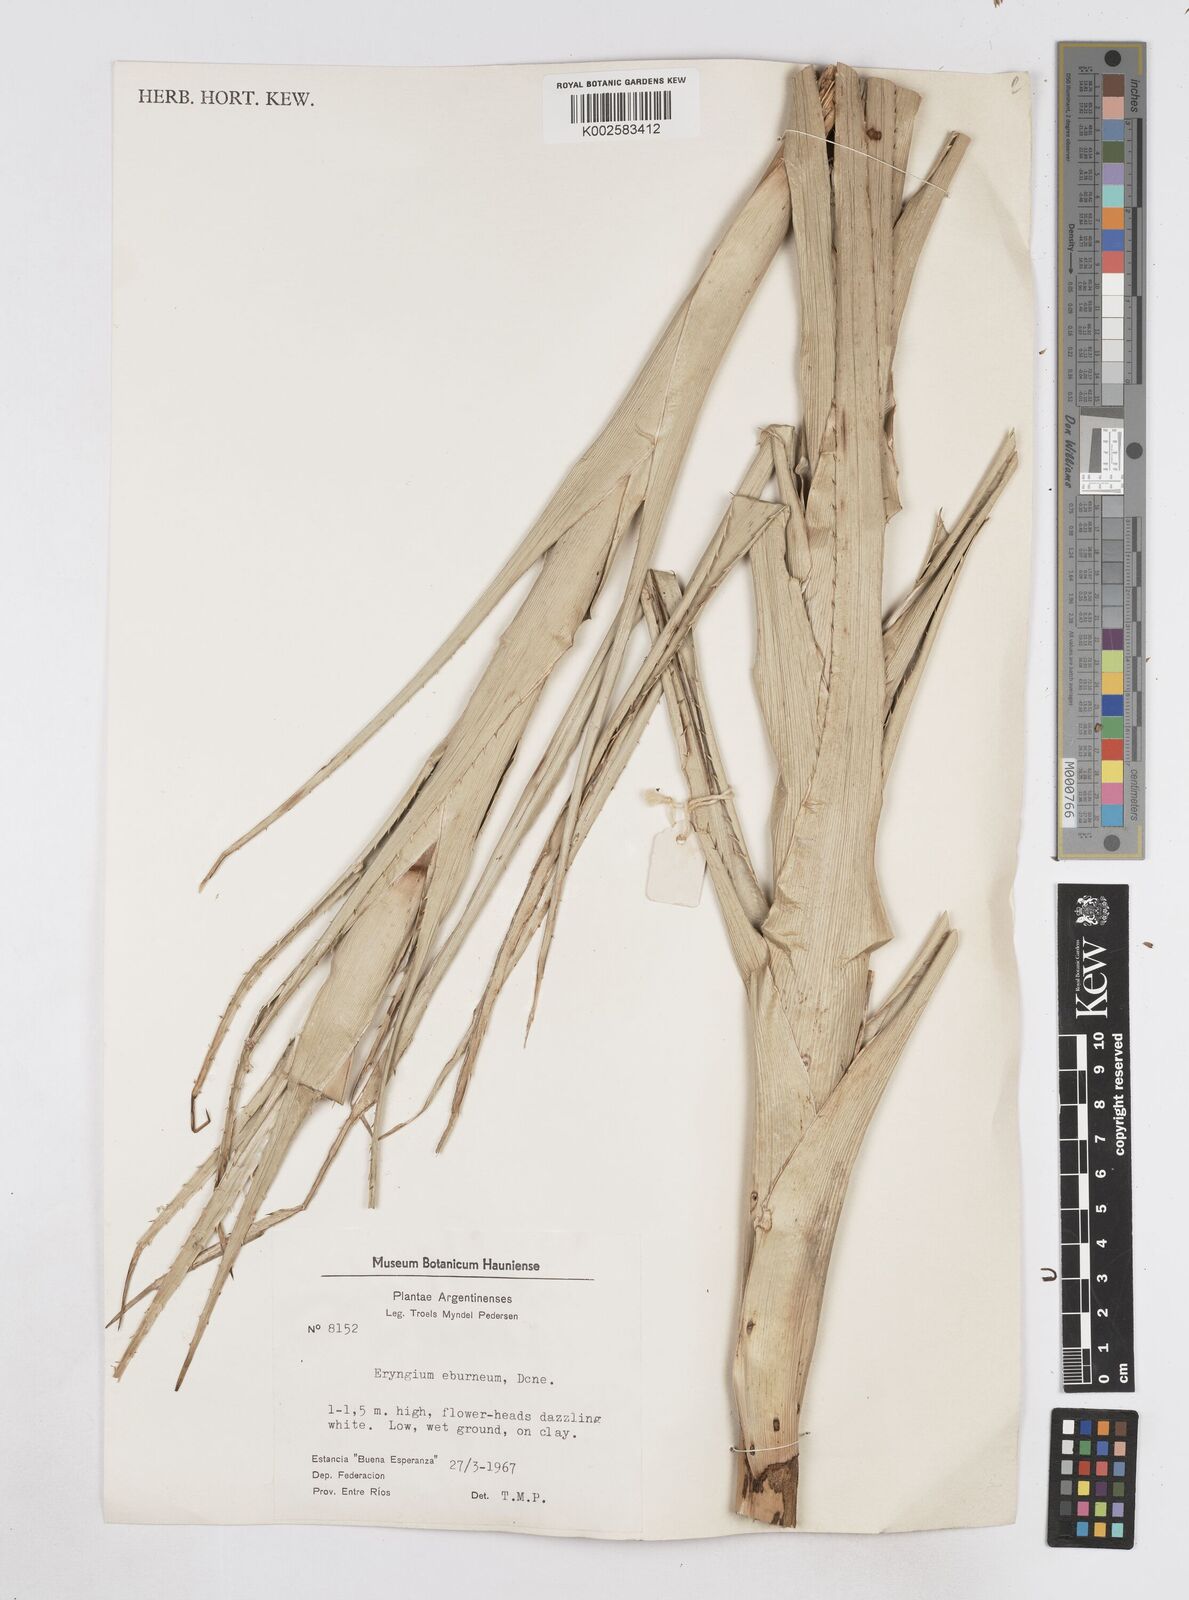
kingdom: Plantae
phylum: Tracheophyta
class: Magnoliopsida
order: Apiales
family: Apiaceae
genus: Eryngium
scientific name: Eryngium eburneum
